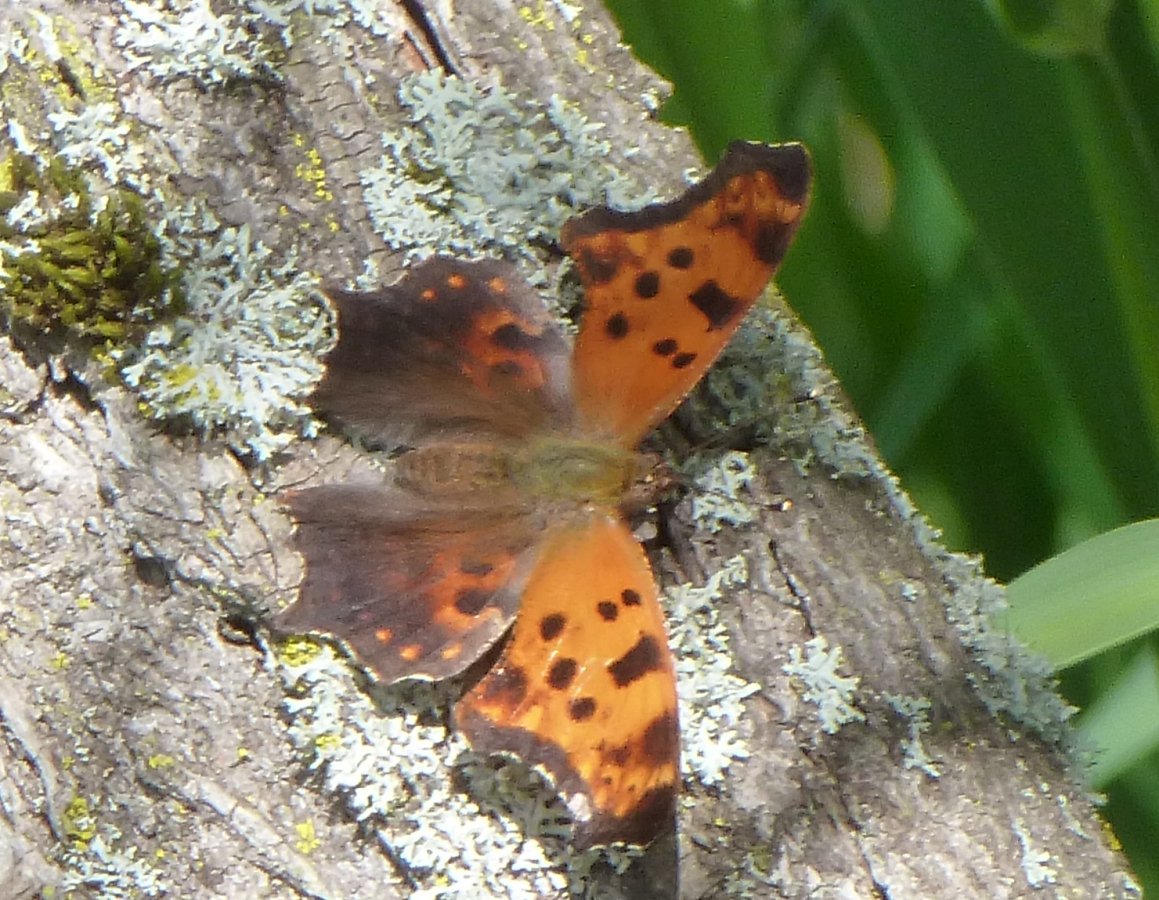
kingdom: Animalia
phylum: Arthropoda
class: Insecta
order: Lepidoptera
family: Nymphalidae
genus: Polygonia
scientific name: Polygonia comma
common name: Eastern Comma
